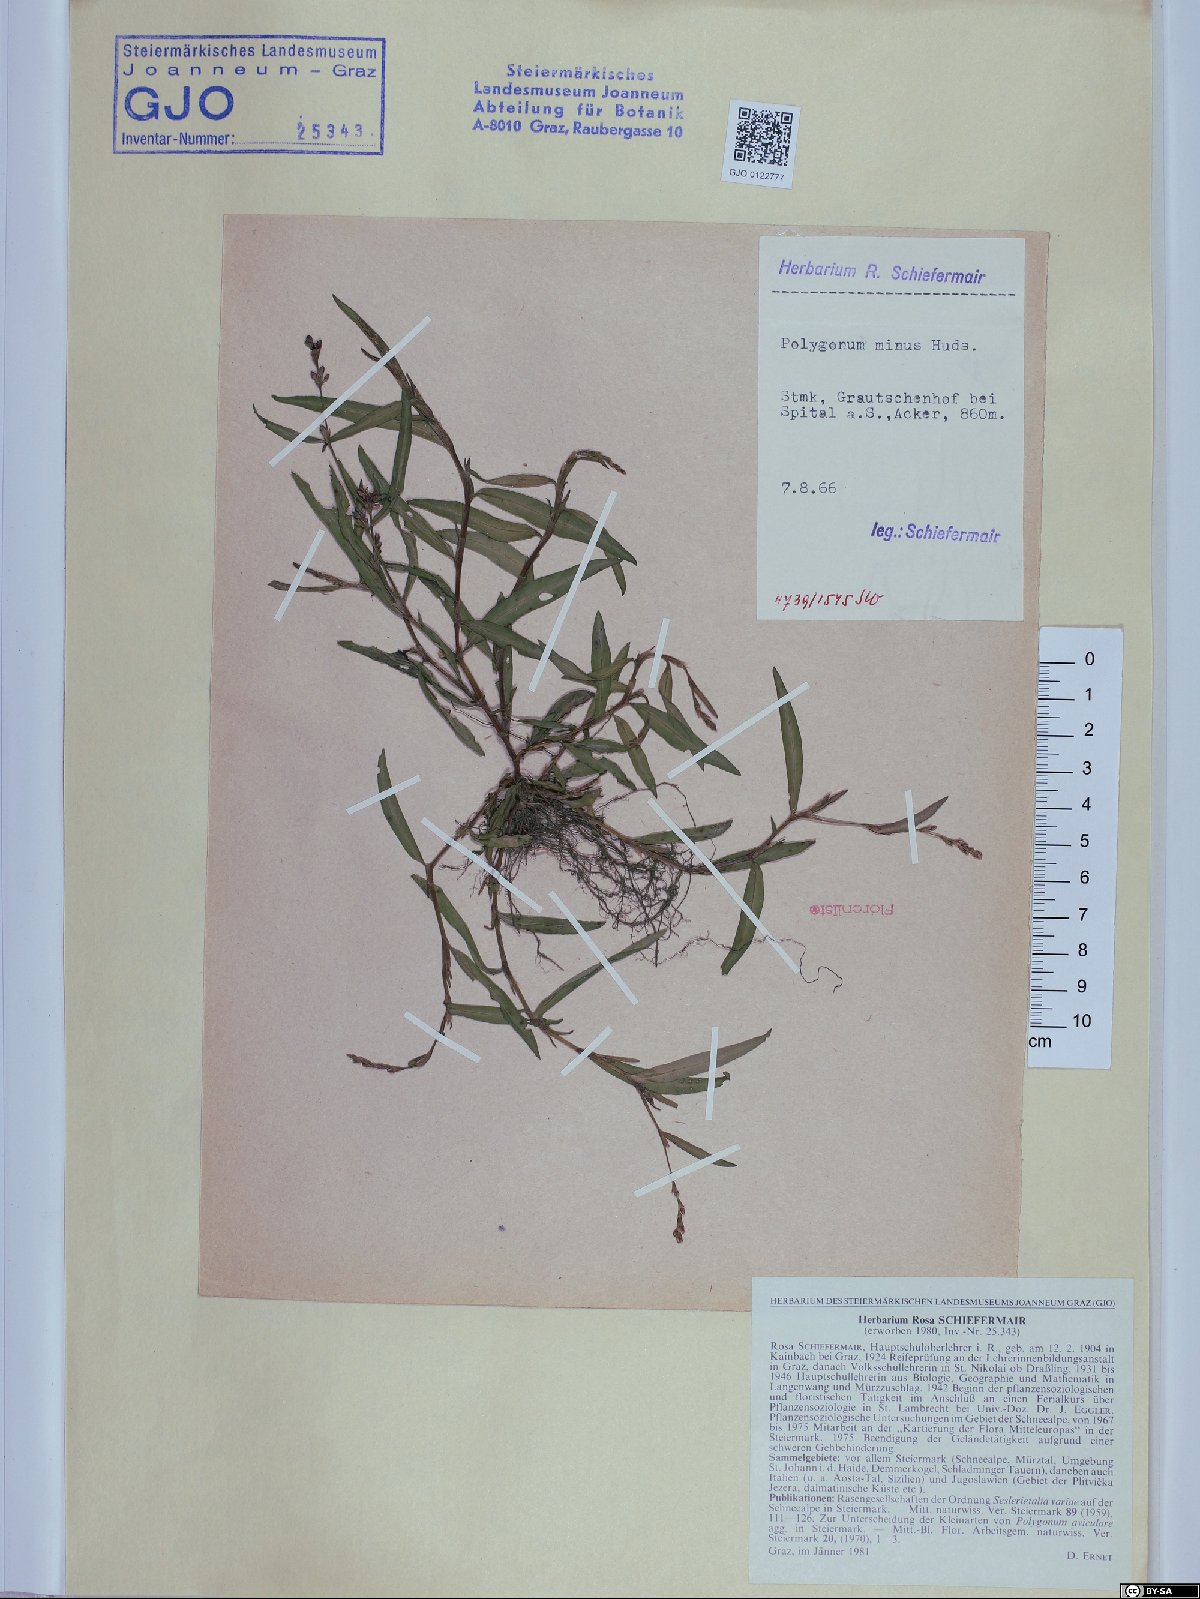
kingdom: Plantae
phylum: Tracheophyta
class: Magnoliopsida
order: Caryophyllales
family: Polygonaceae
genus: Persicaria
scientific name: Persicaria minor
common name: Small water-pepper
